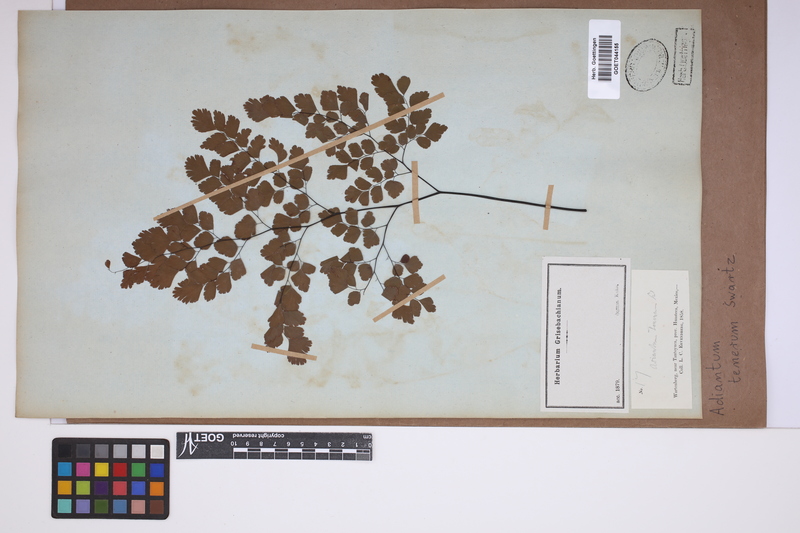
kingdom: Plantae
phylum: Tracheophyta
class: Polypodiopsida
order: Polypodiales
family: Pteridaceae
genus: Adiantum
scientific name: Adiantum tenerum
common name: Fan maidenhair
